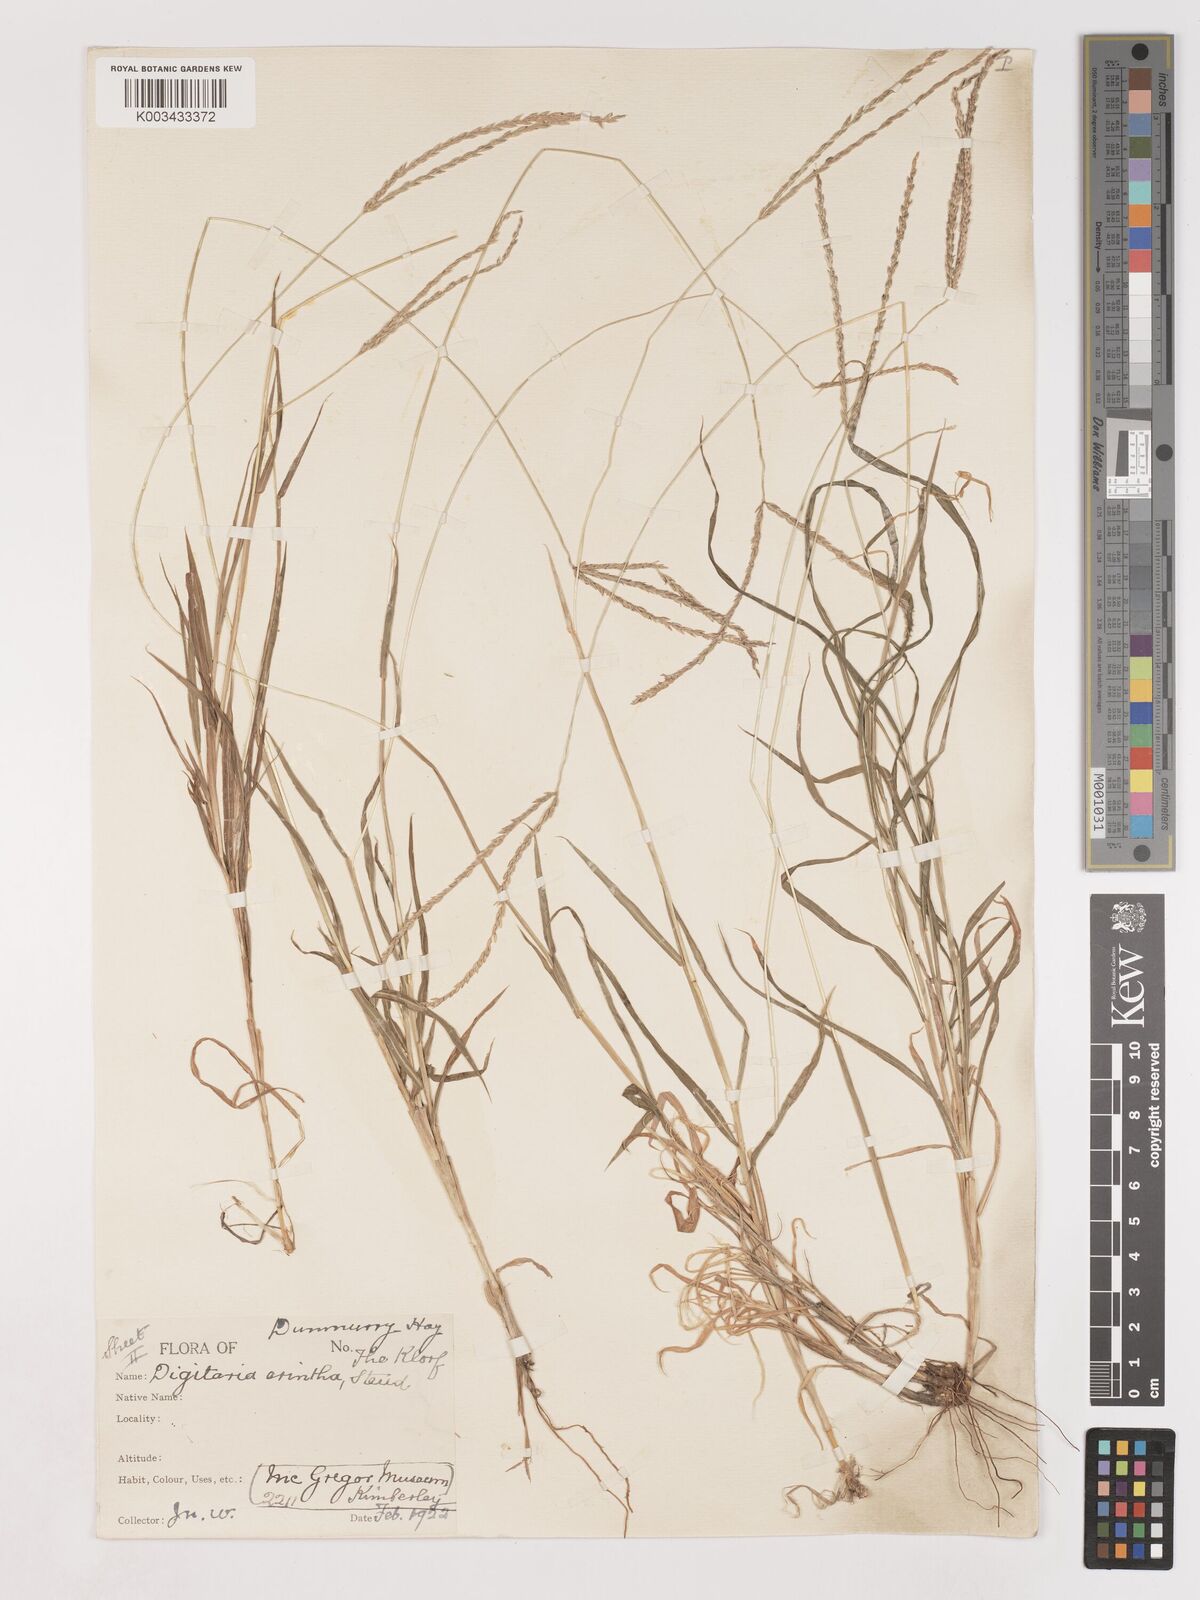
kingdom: Plantae
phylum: Tracheophyta
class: Liliopsida
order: Poales
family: Poaceae
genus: Digitaria
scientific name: Digitaria eriantha
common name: Digitgrass
